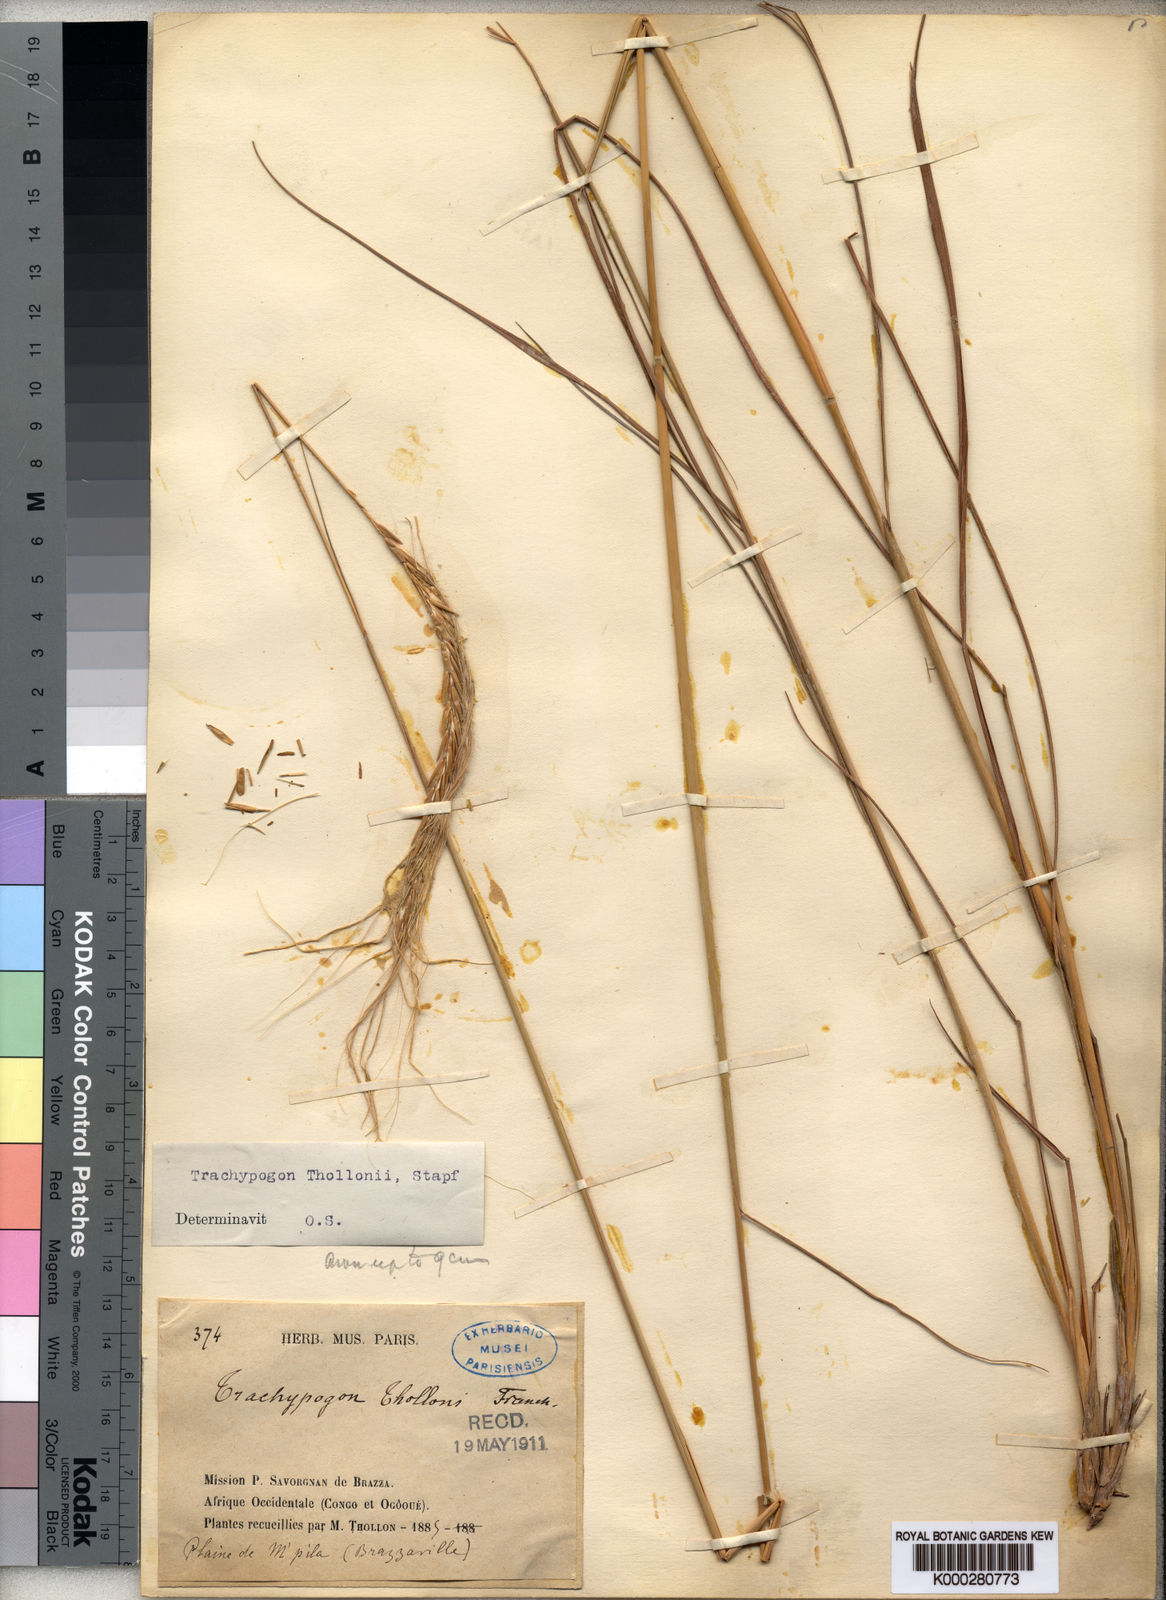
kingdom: Plantae
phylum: Tracheophyta
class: Liliopsida
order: Poales
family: Poaceae
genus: Trachypogon
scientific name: Trachypogon spicatus
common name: Crinkle-awn
